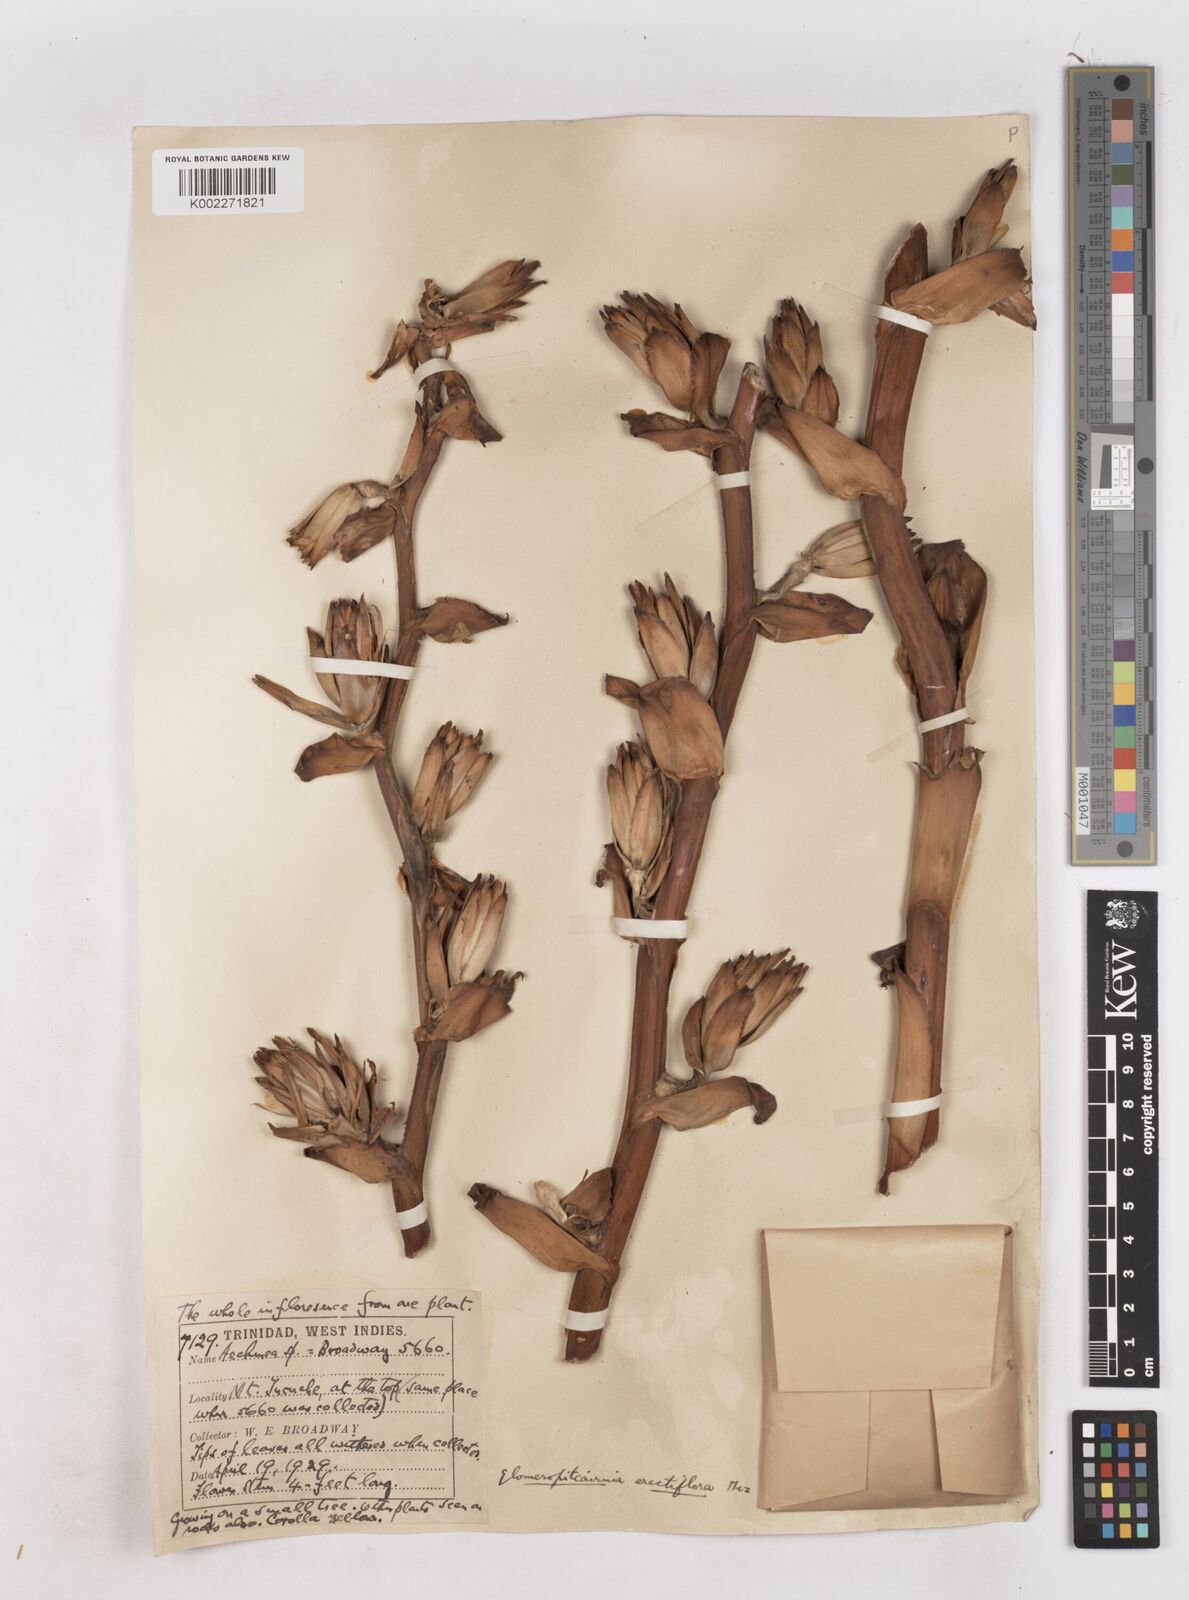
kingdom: Plantae
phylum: Tracheophyta
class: Liliopsida
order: Poales
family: Bromeliaceae
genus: Glomeropitcairnia
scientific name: Glomeropitcairnia erectiflora
